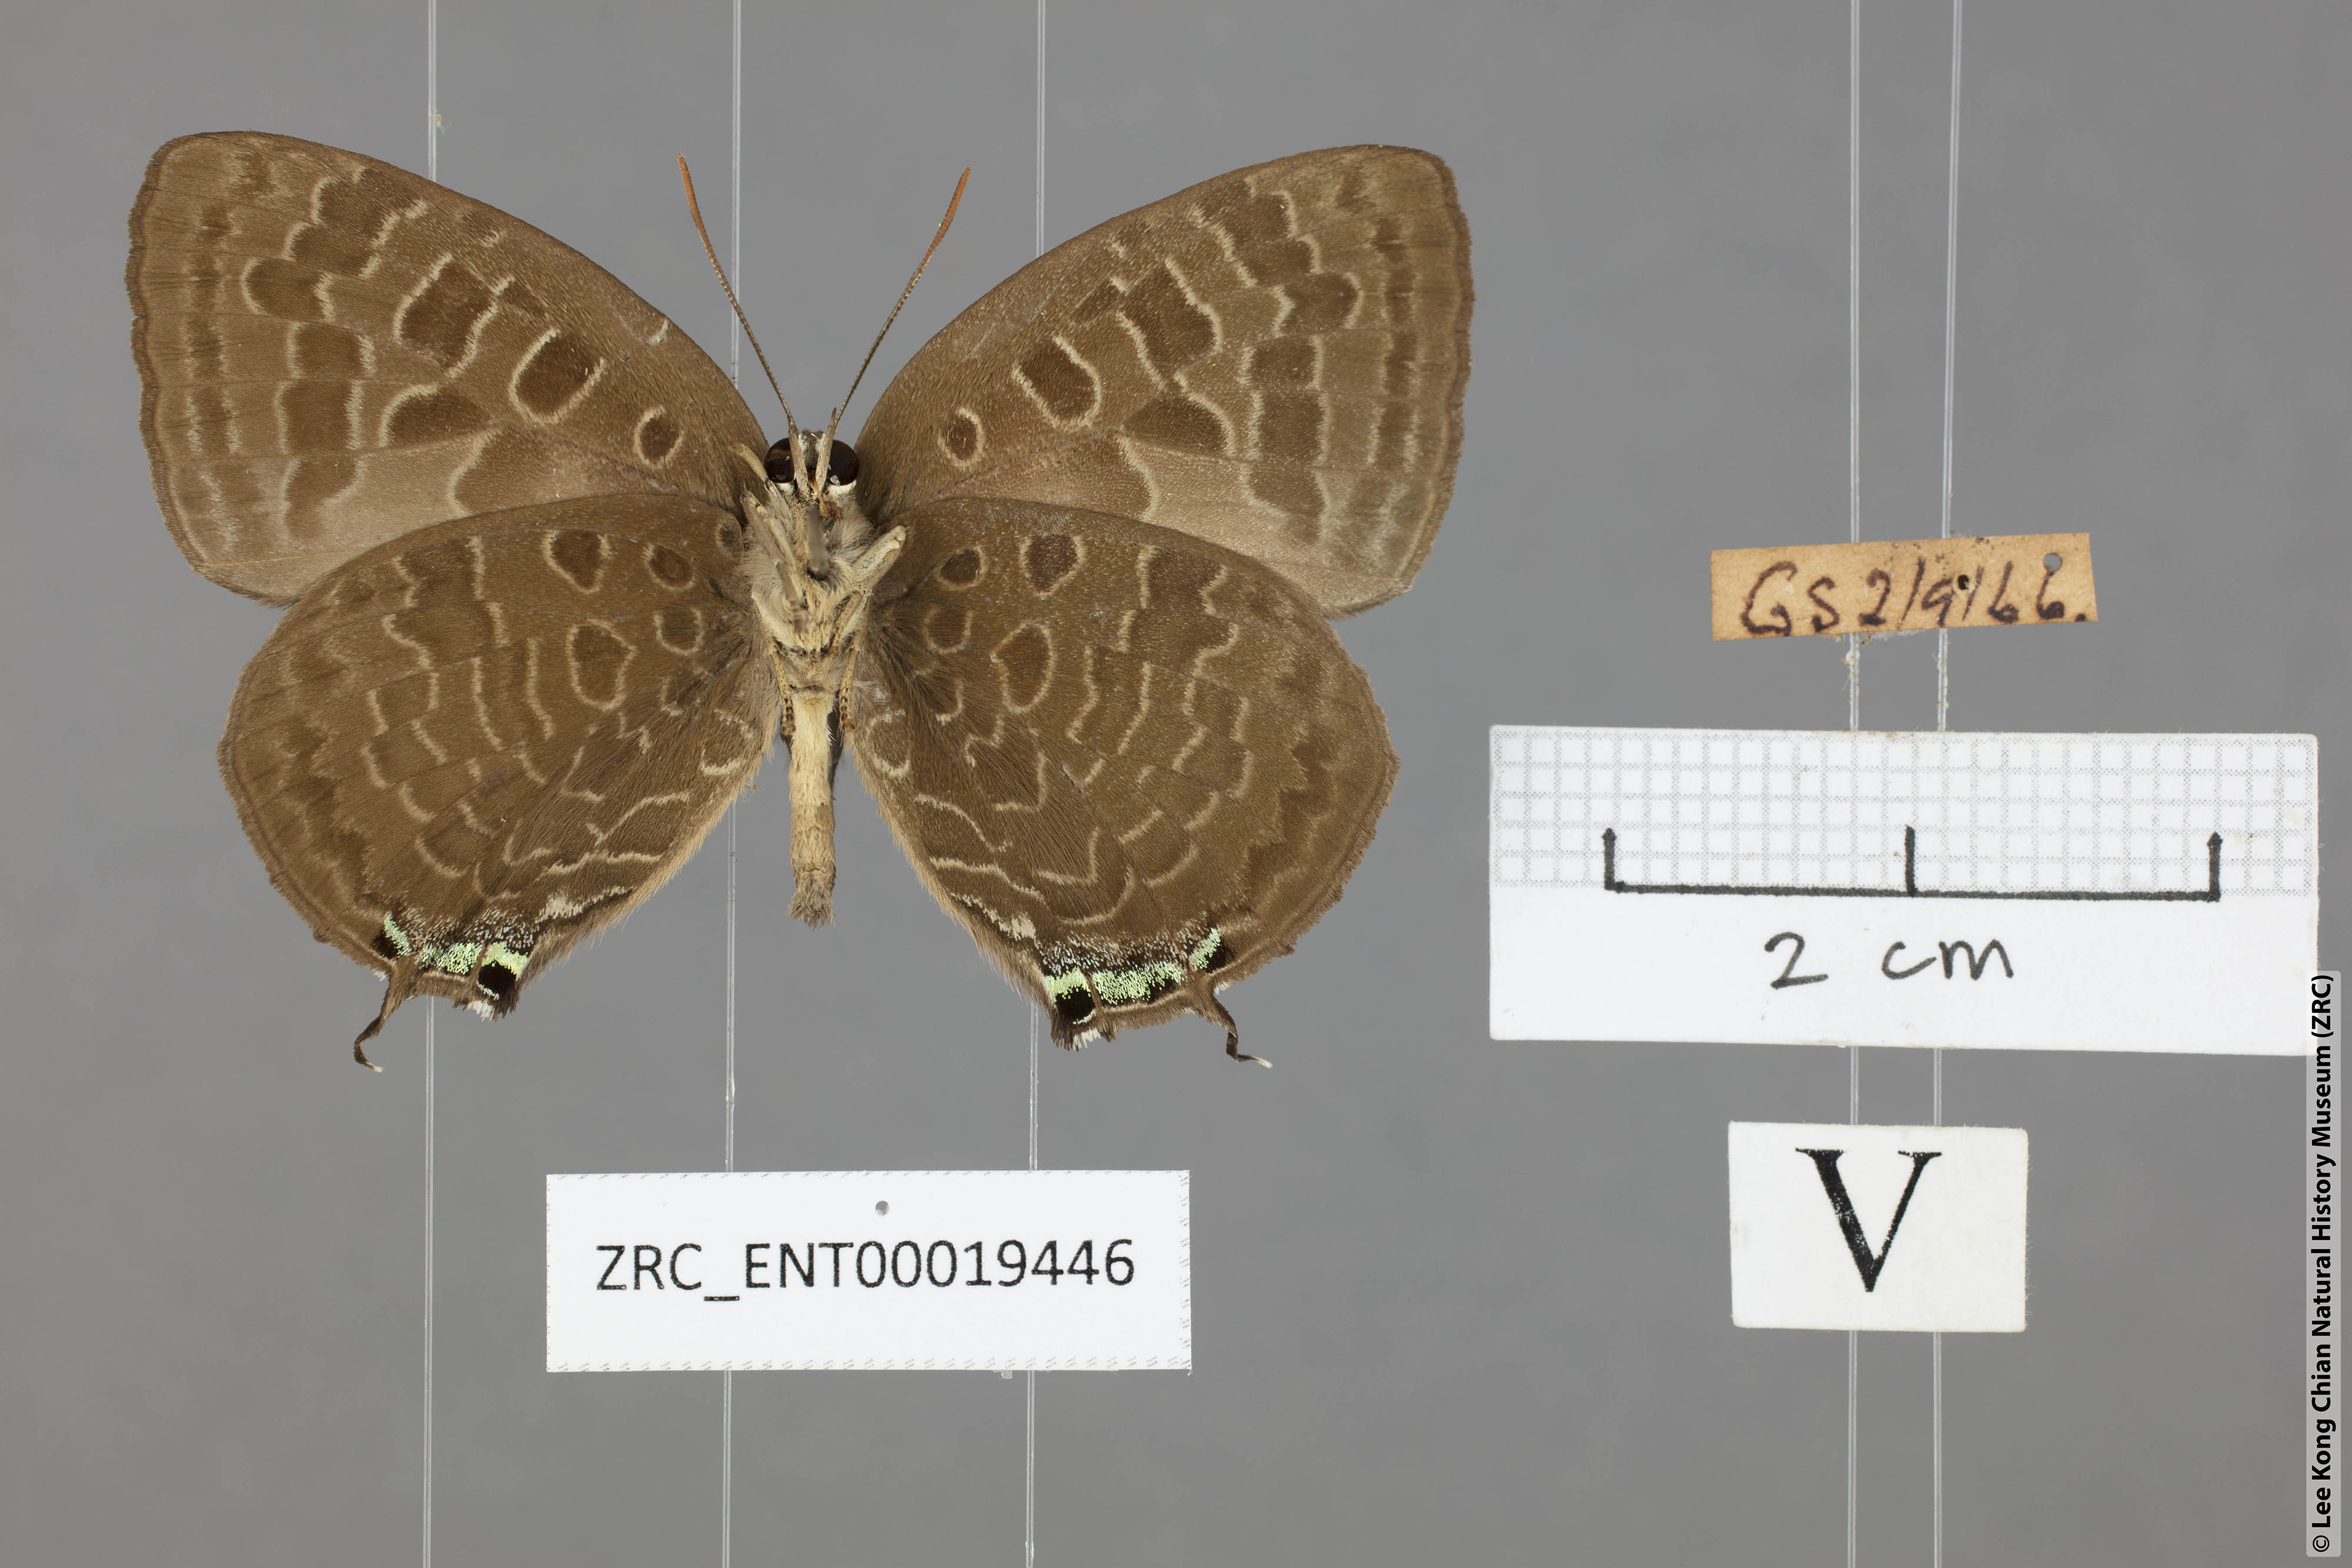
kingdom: Animalia
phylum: Arthropoda
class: Insecta
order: Lepidoptera
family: Lycaenidae
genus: Arhopala
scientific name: Arhopala eumolphus
